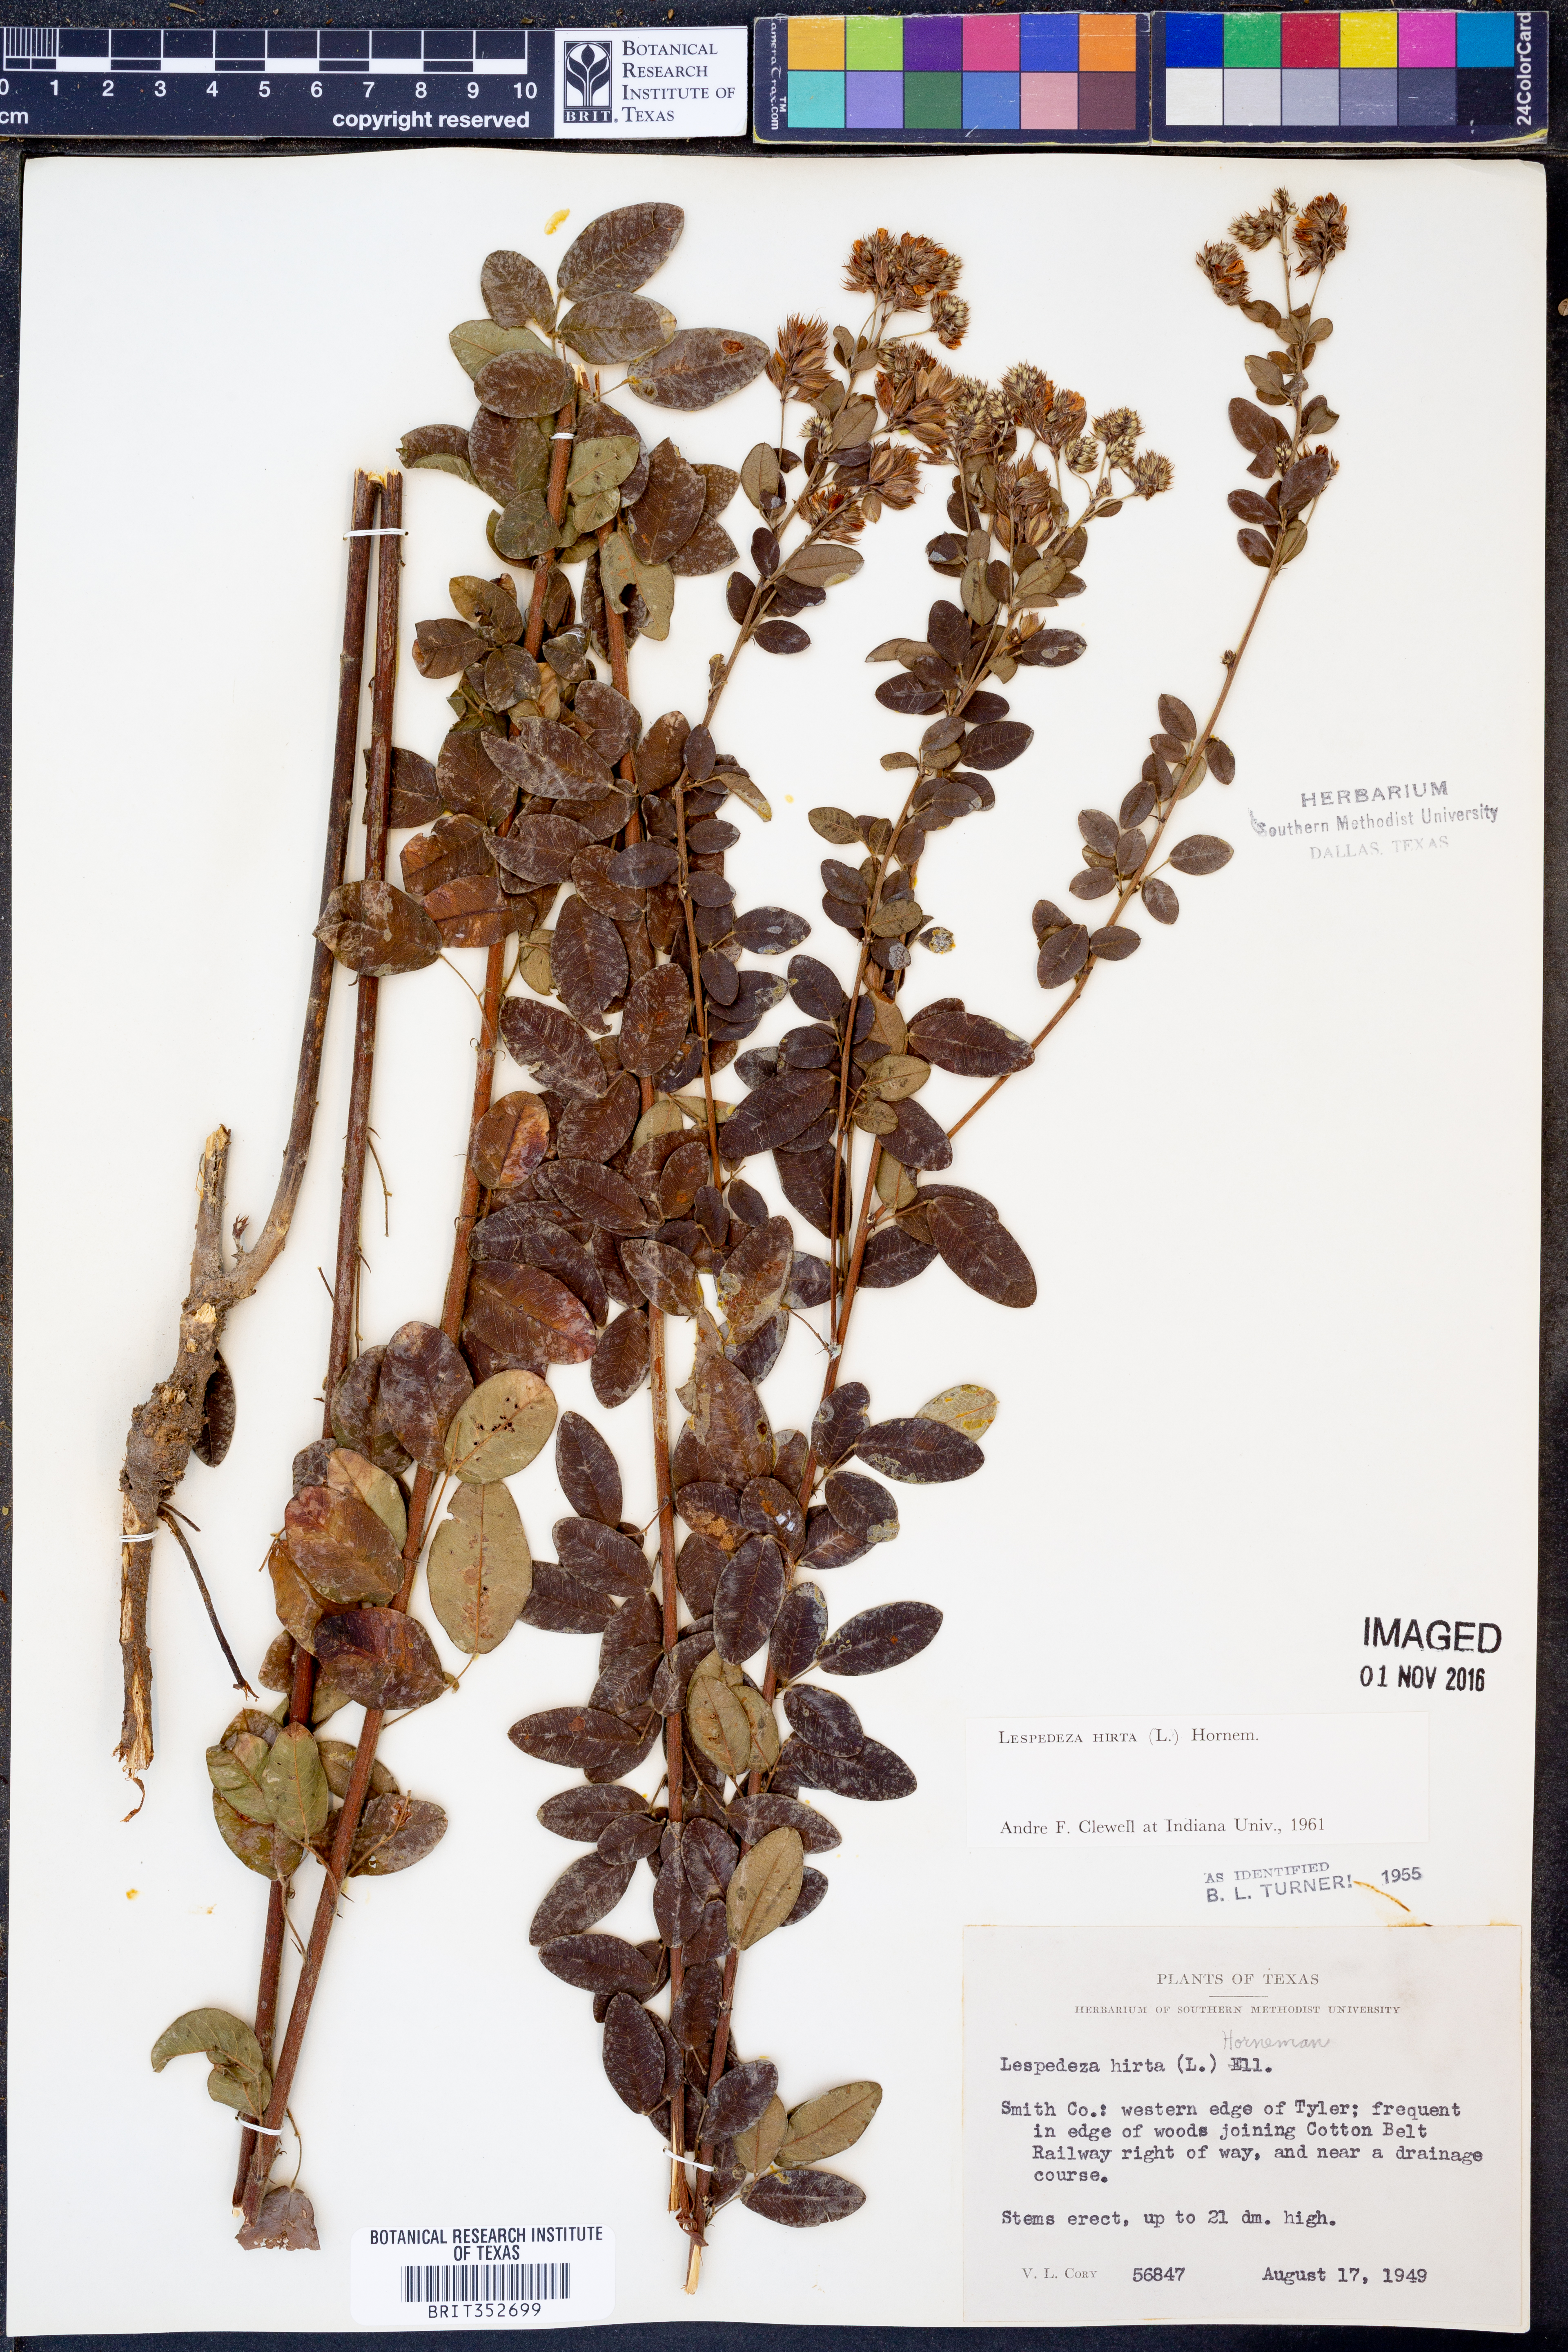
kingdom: Plantae
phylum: Tracheophyta
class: Magnoliopsida
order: Fabales
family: Fabaceae
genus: Lespedeza
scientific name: Lespedeza hirta
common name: Hairy lespedeza
